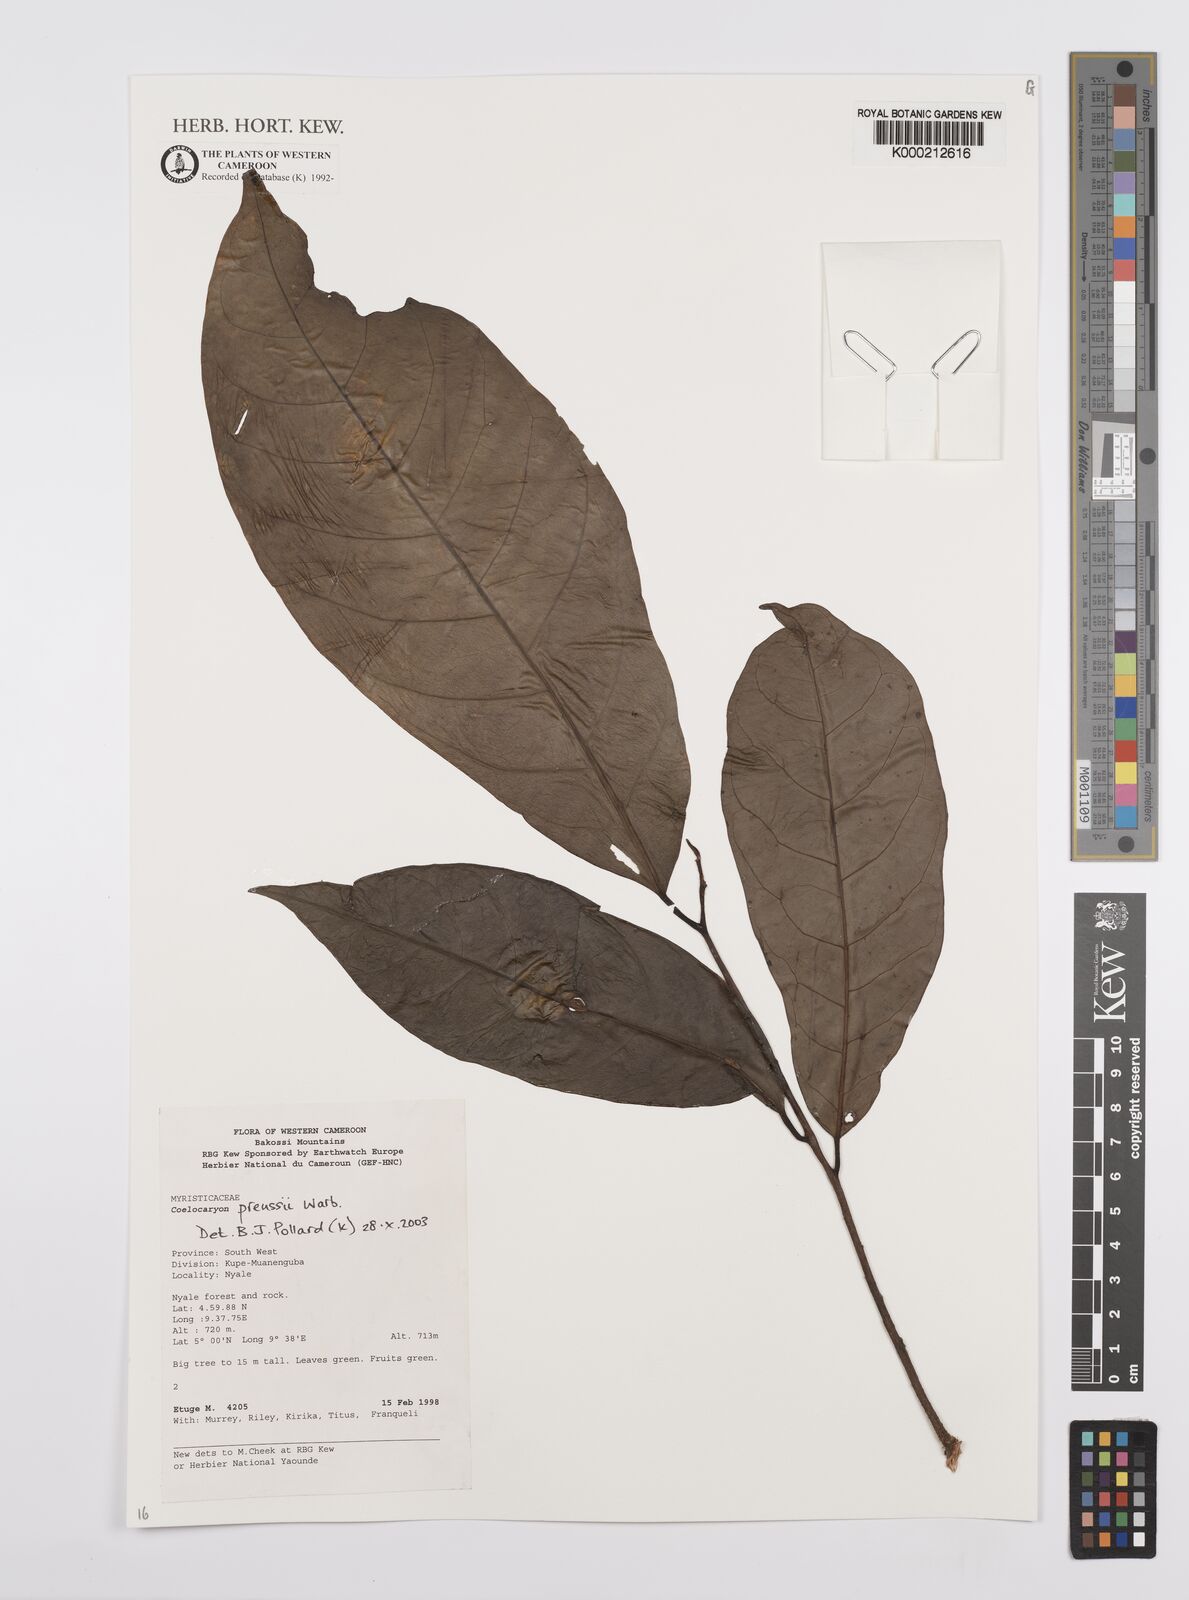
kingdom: Plantae
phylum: Tracheophyta
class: Magnoliopsida
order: Magnoliales
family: Myristicaceae
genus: Coelocaryon
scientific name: Coelocaryon preussii
